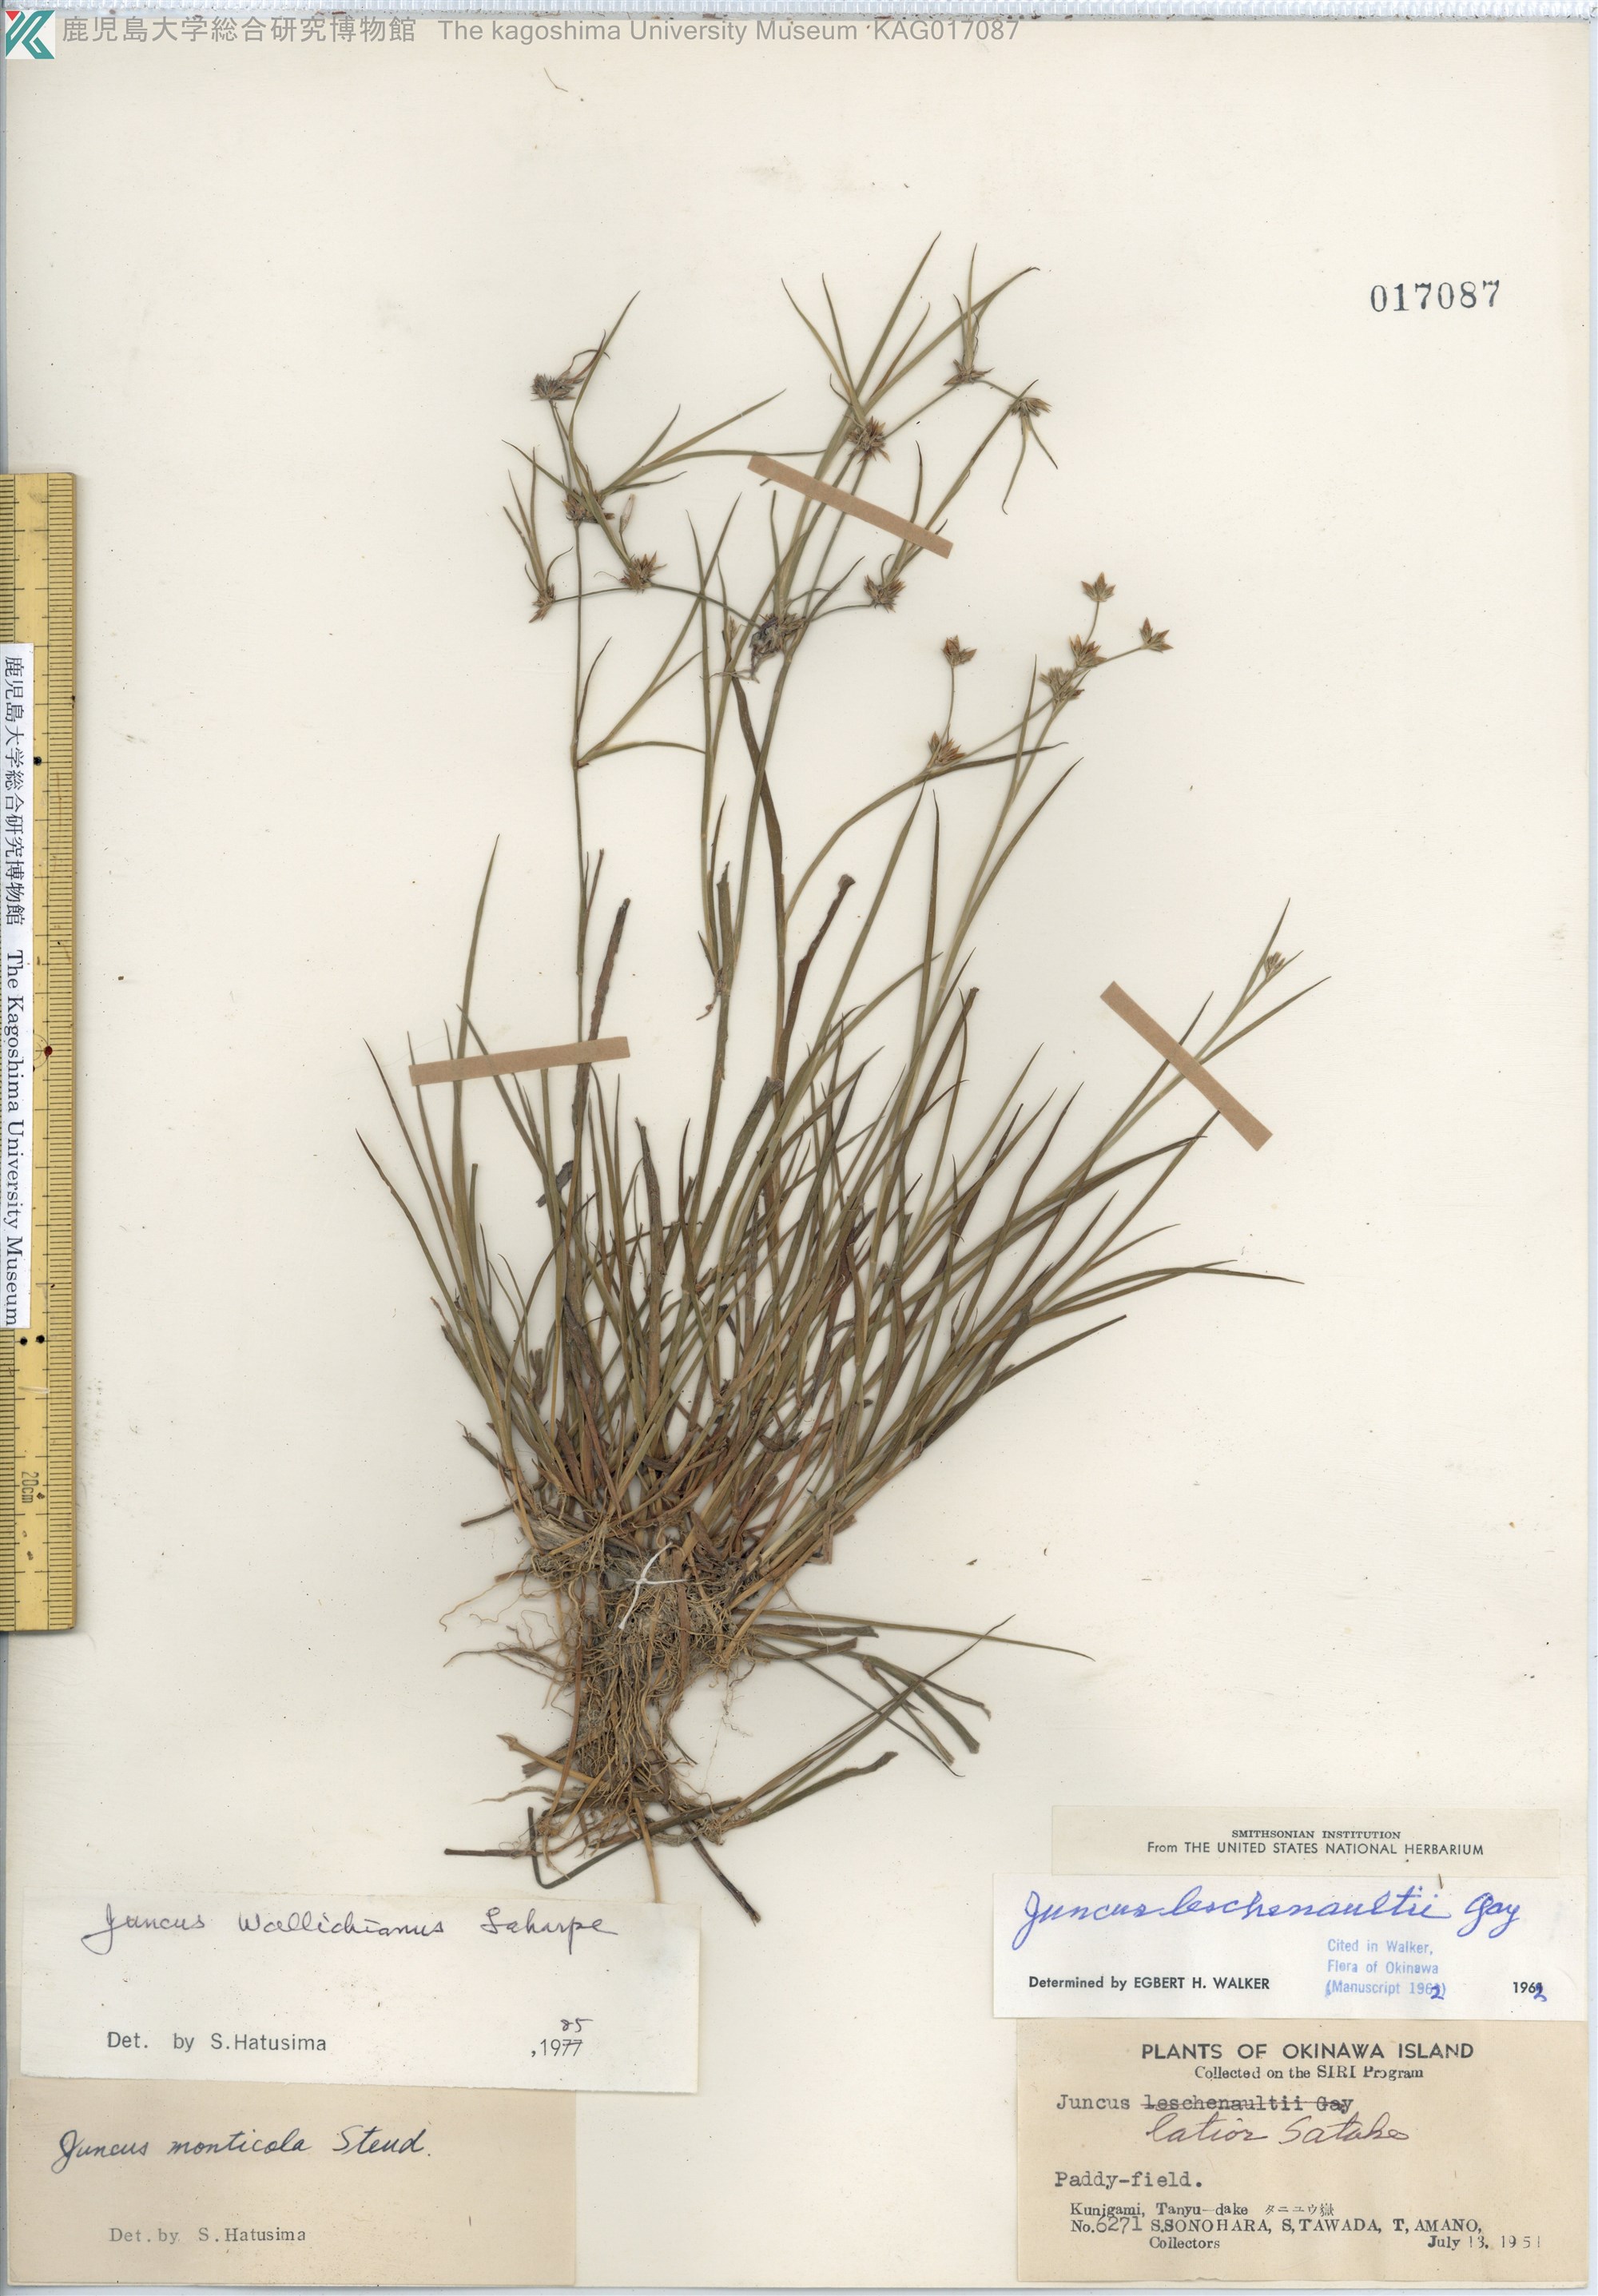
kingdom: Plantae
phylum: Tracheophyta
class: Liliopsida
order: Poales
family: Juncaceae
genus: Juncus
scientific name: Juncus prismatocarpus
